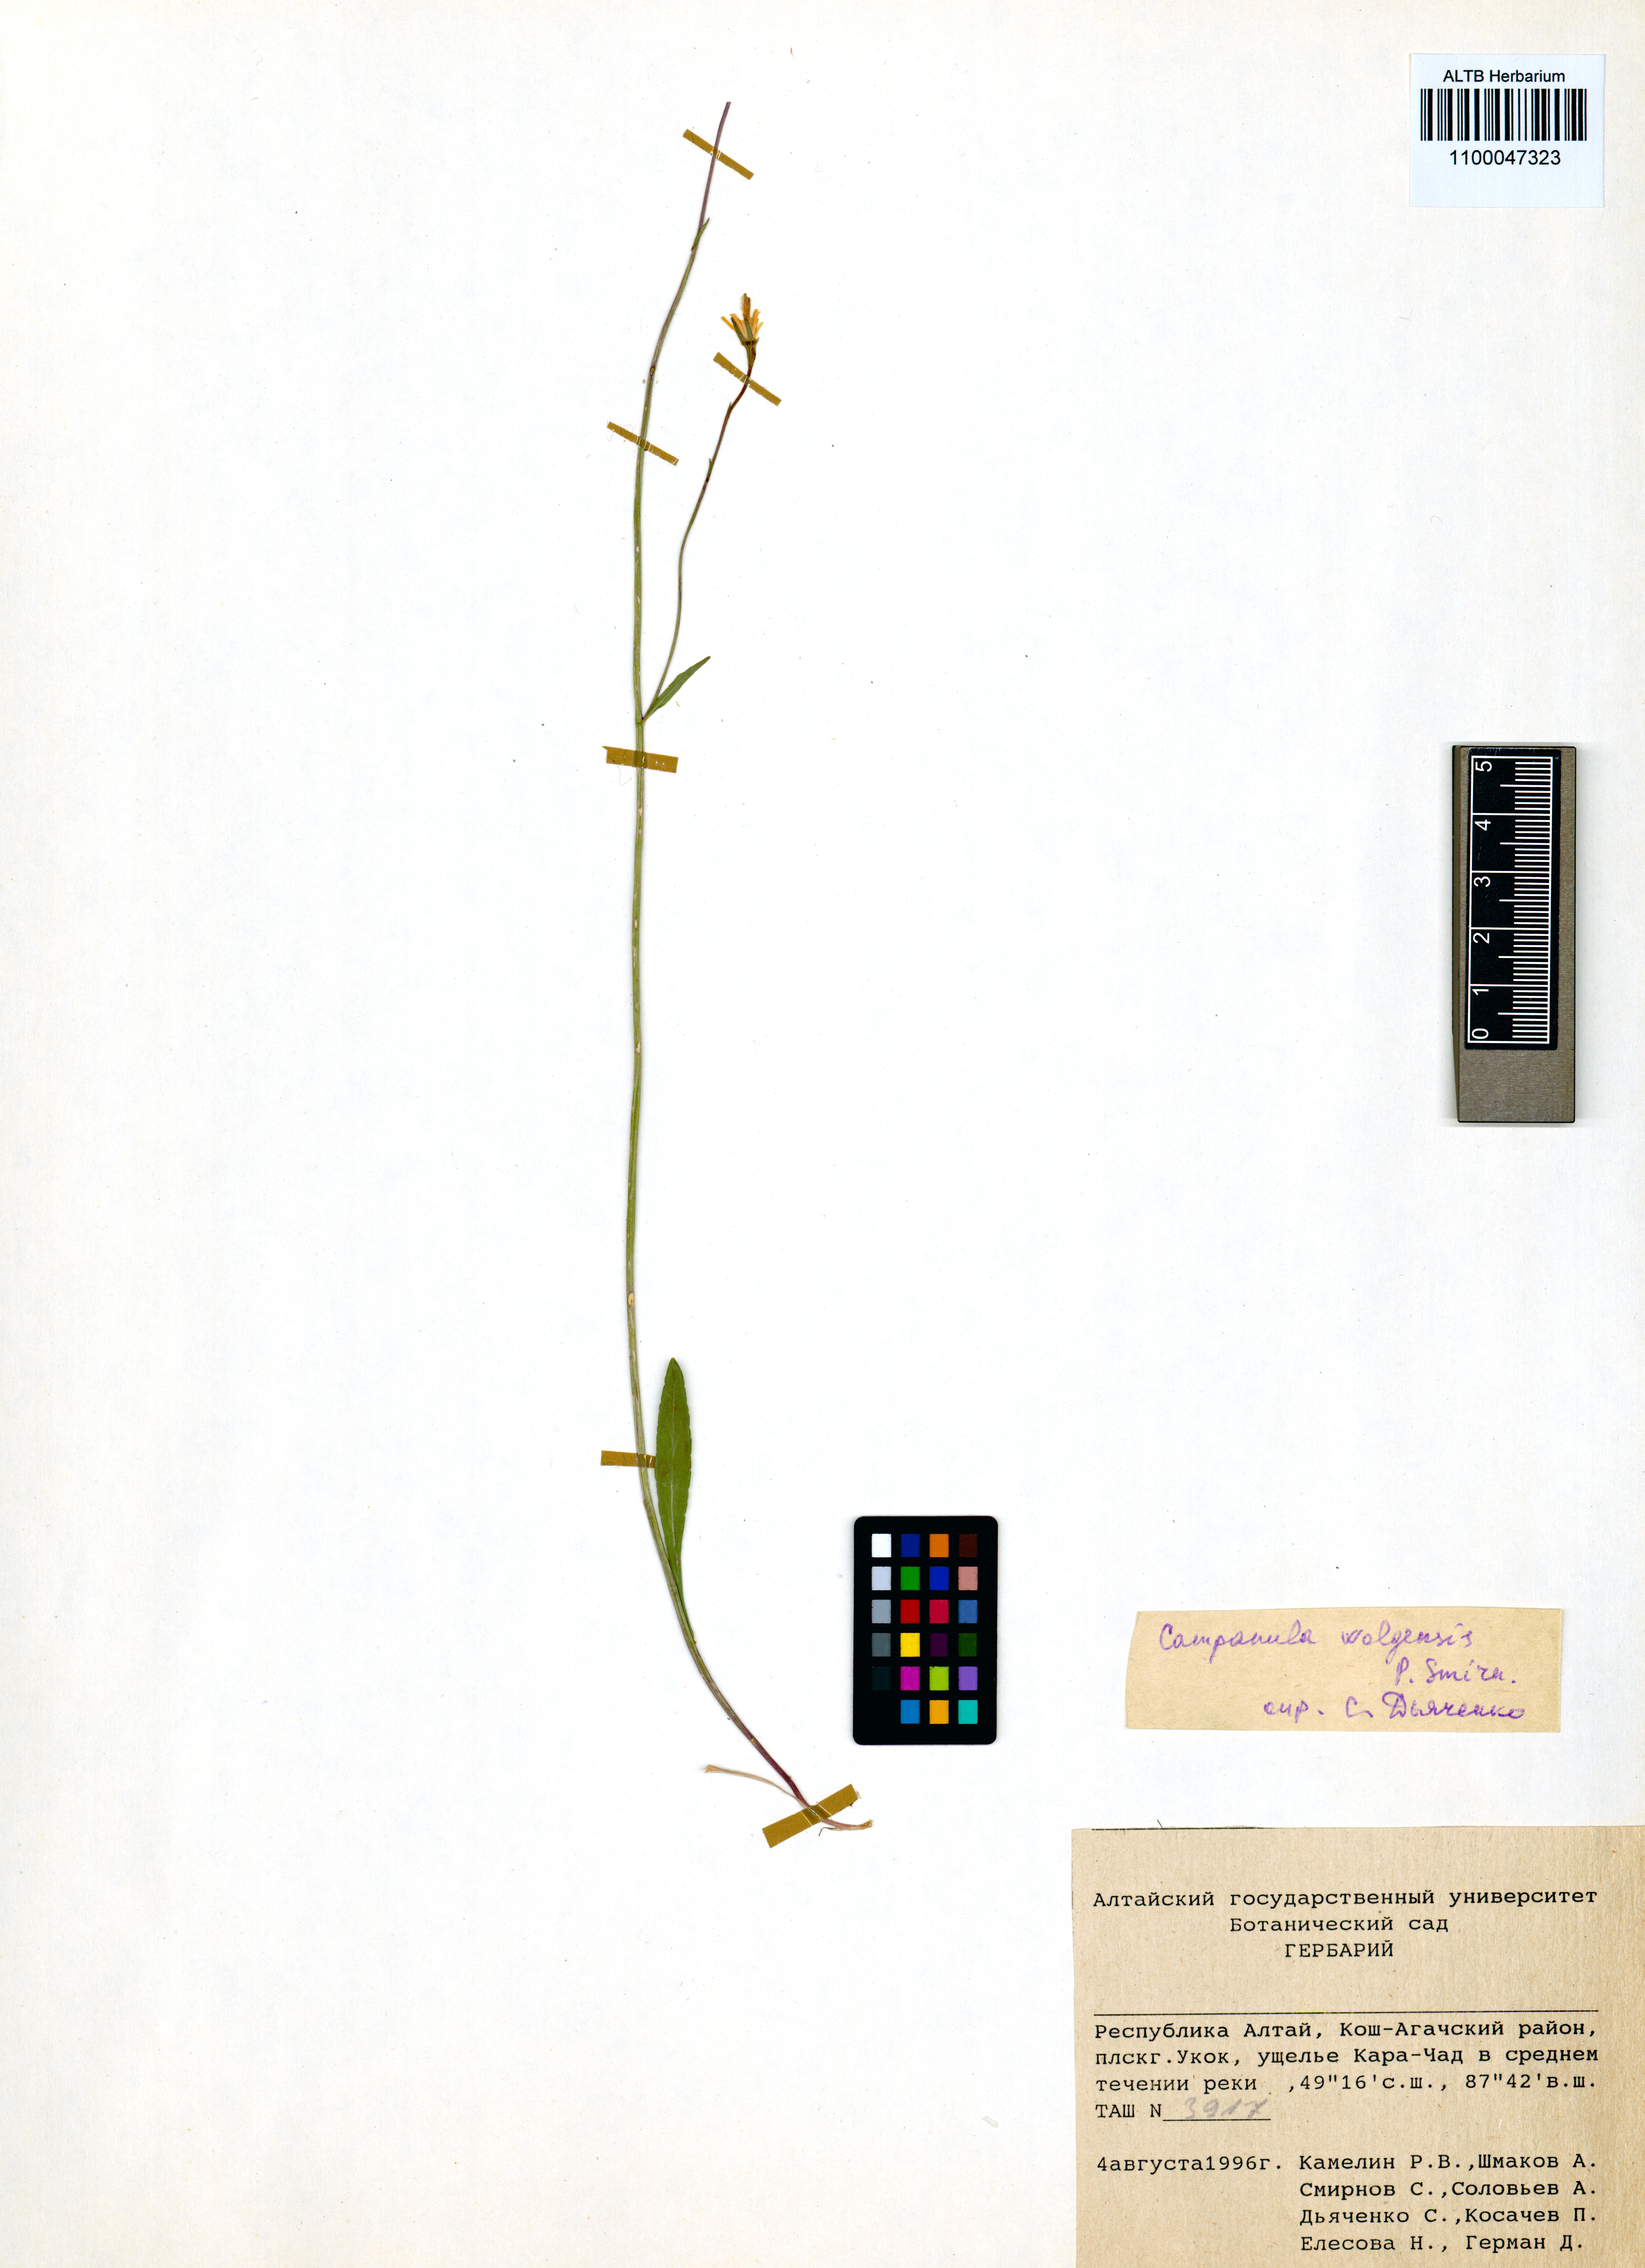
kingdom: Plantae
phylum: Tracheophyta
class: Magnoliopsida
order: Asterales
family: Campanulaceae
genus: Campanula
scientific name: Campanula stevenii
